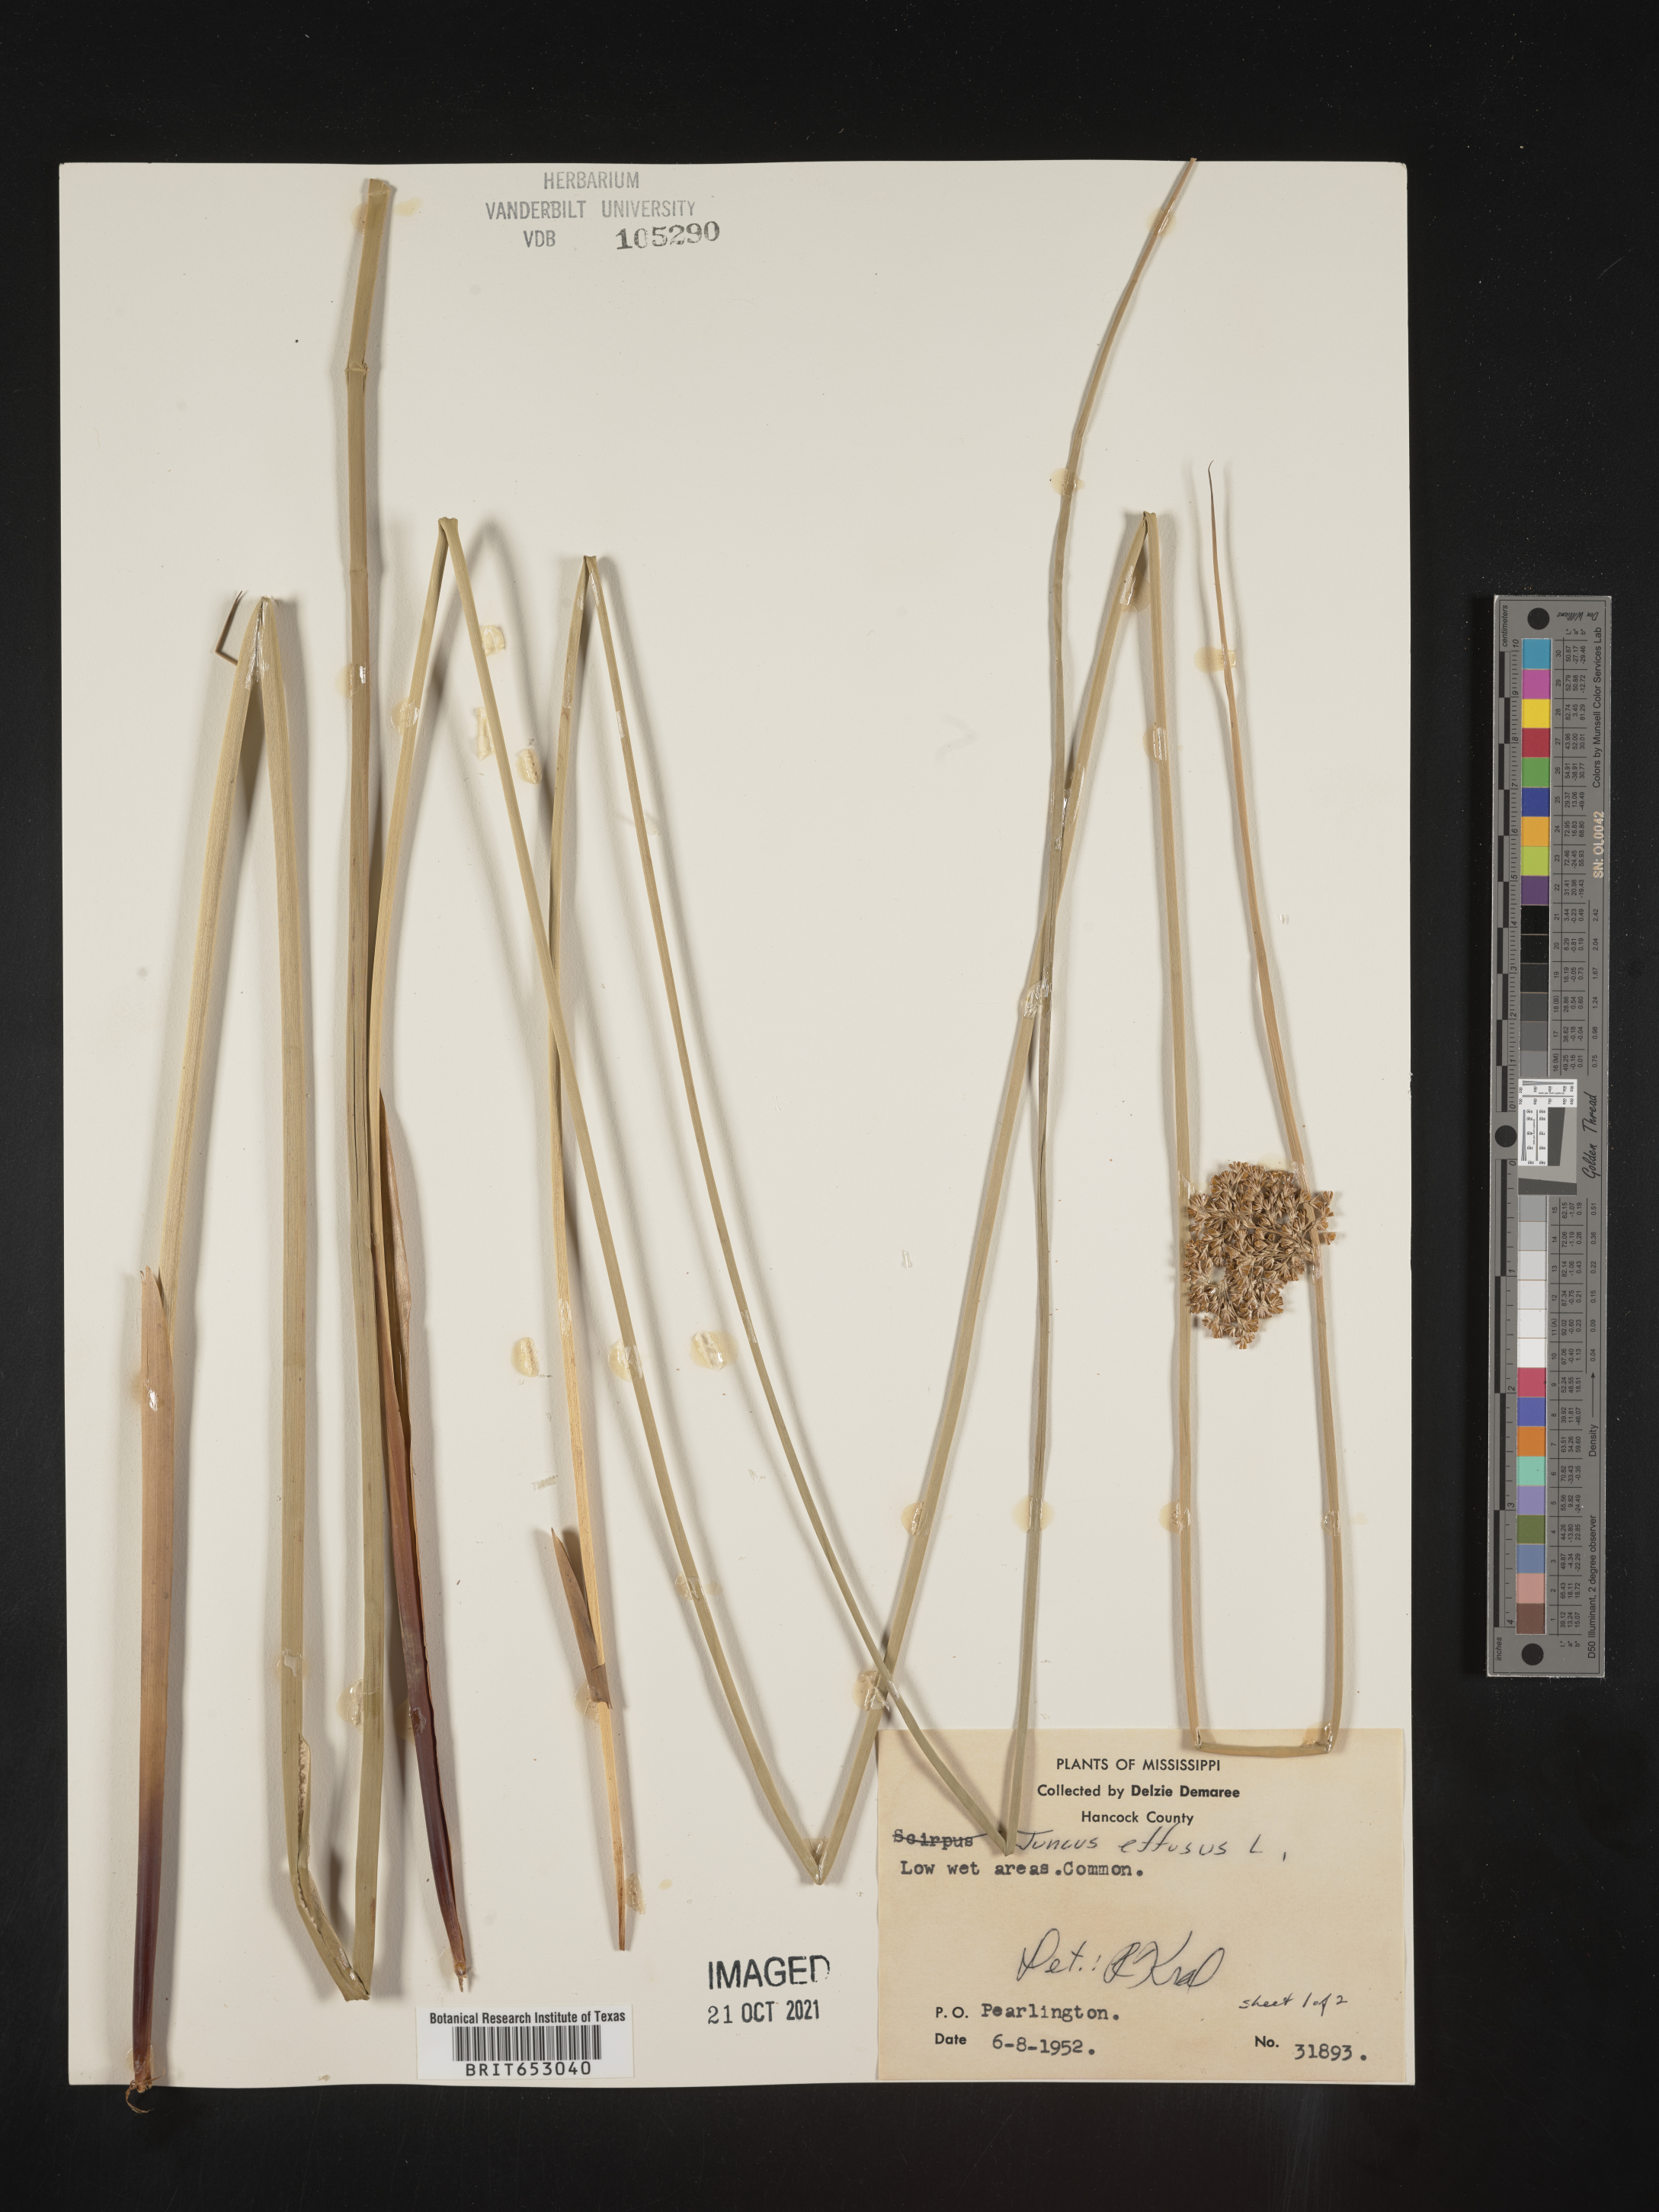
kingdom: Plantae
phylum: Tracheophyta
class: Liliopsida
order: Poales
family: Juncaceae
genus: Juncus
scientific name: Juncus effusus
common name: Soft rush
